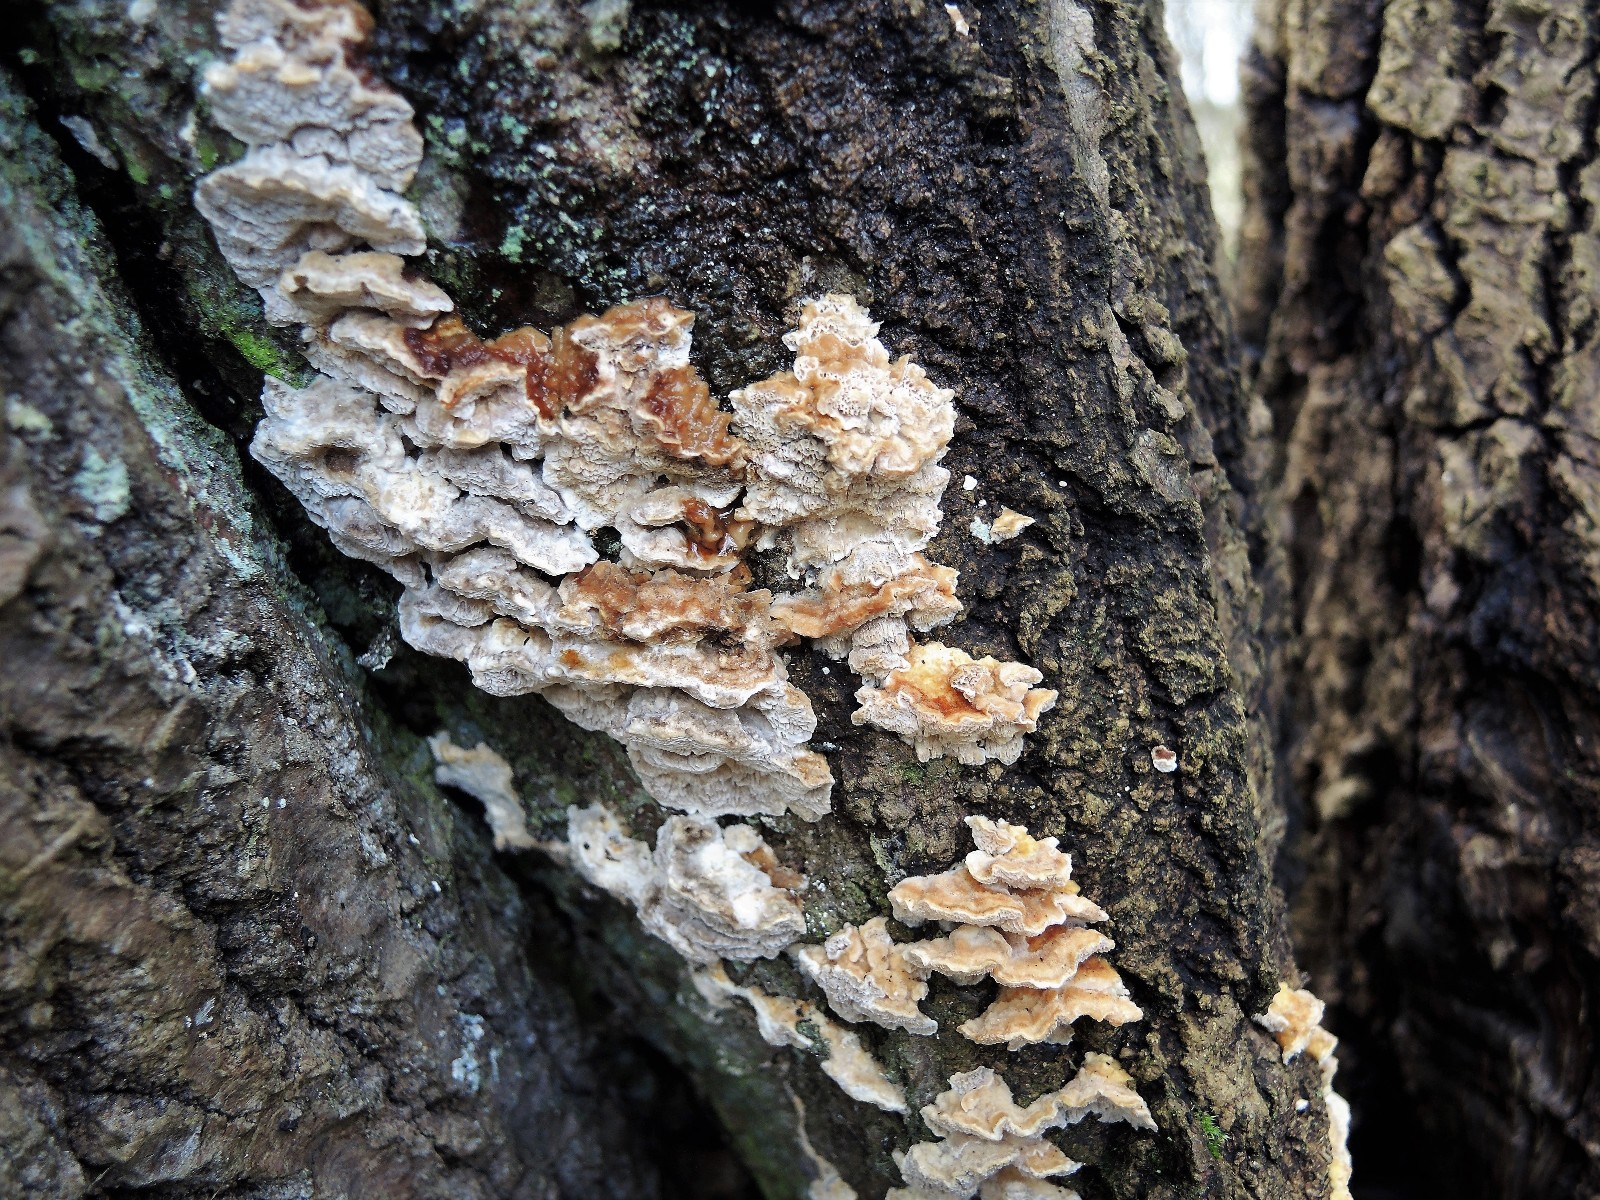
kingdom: Fungi
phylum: Basidiomycota
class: Agaricomycetes
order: Polyporales
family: Polyporaceae
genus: Trametes
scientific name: Trametes ochracea
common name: bæltet læderporesvamp
